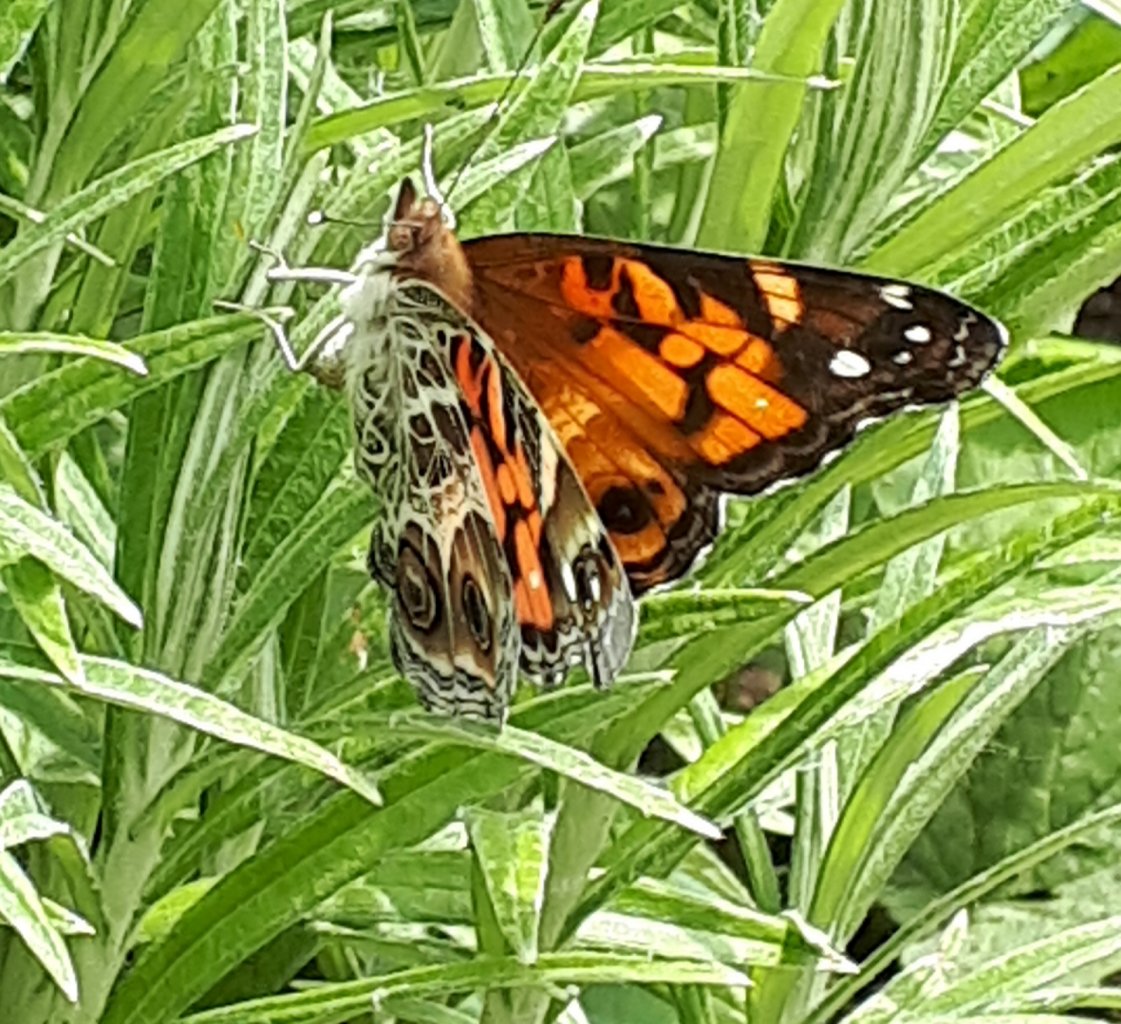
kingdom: Animalia
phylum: Arthropoda
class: Insecta
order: Lepidoptera
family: Nymphalidae
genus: Vanessa
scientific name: Vanessa virginiensis
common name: American Lady
